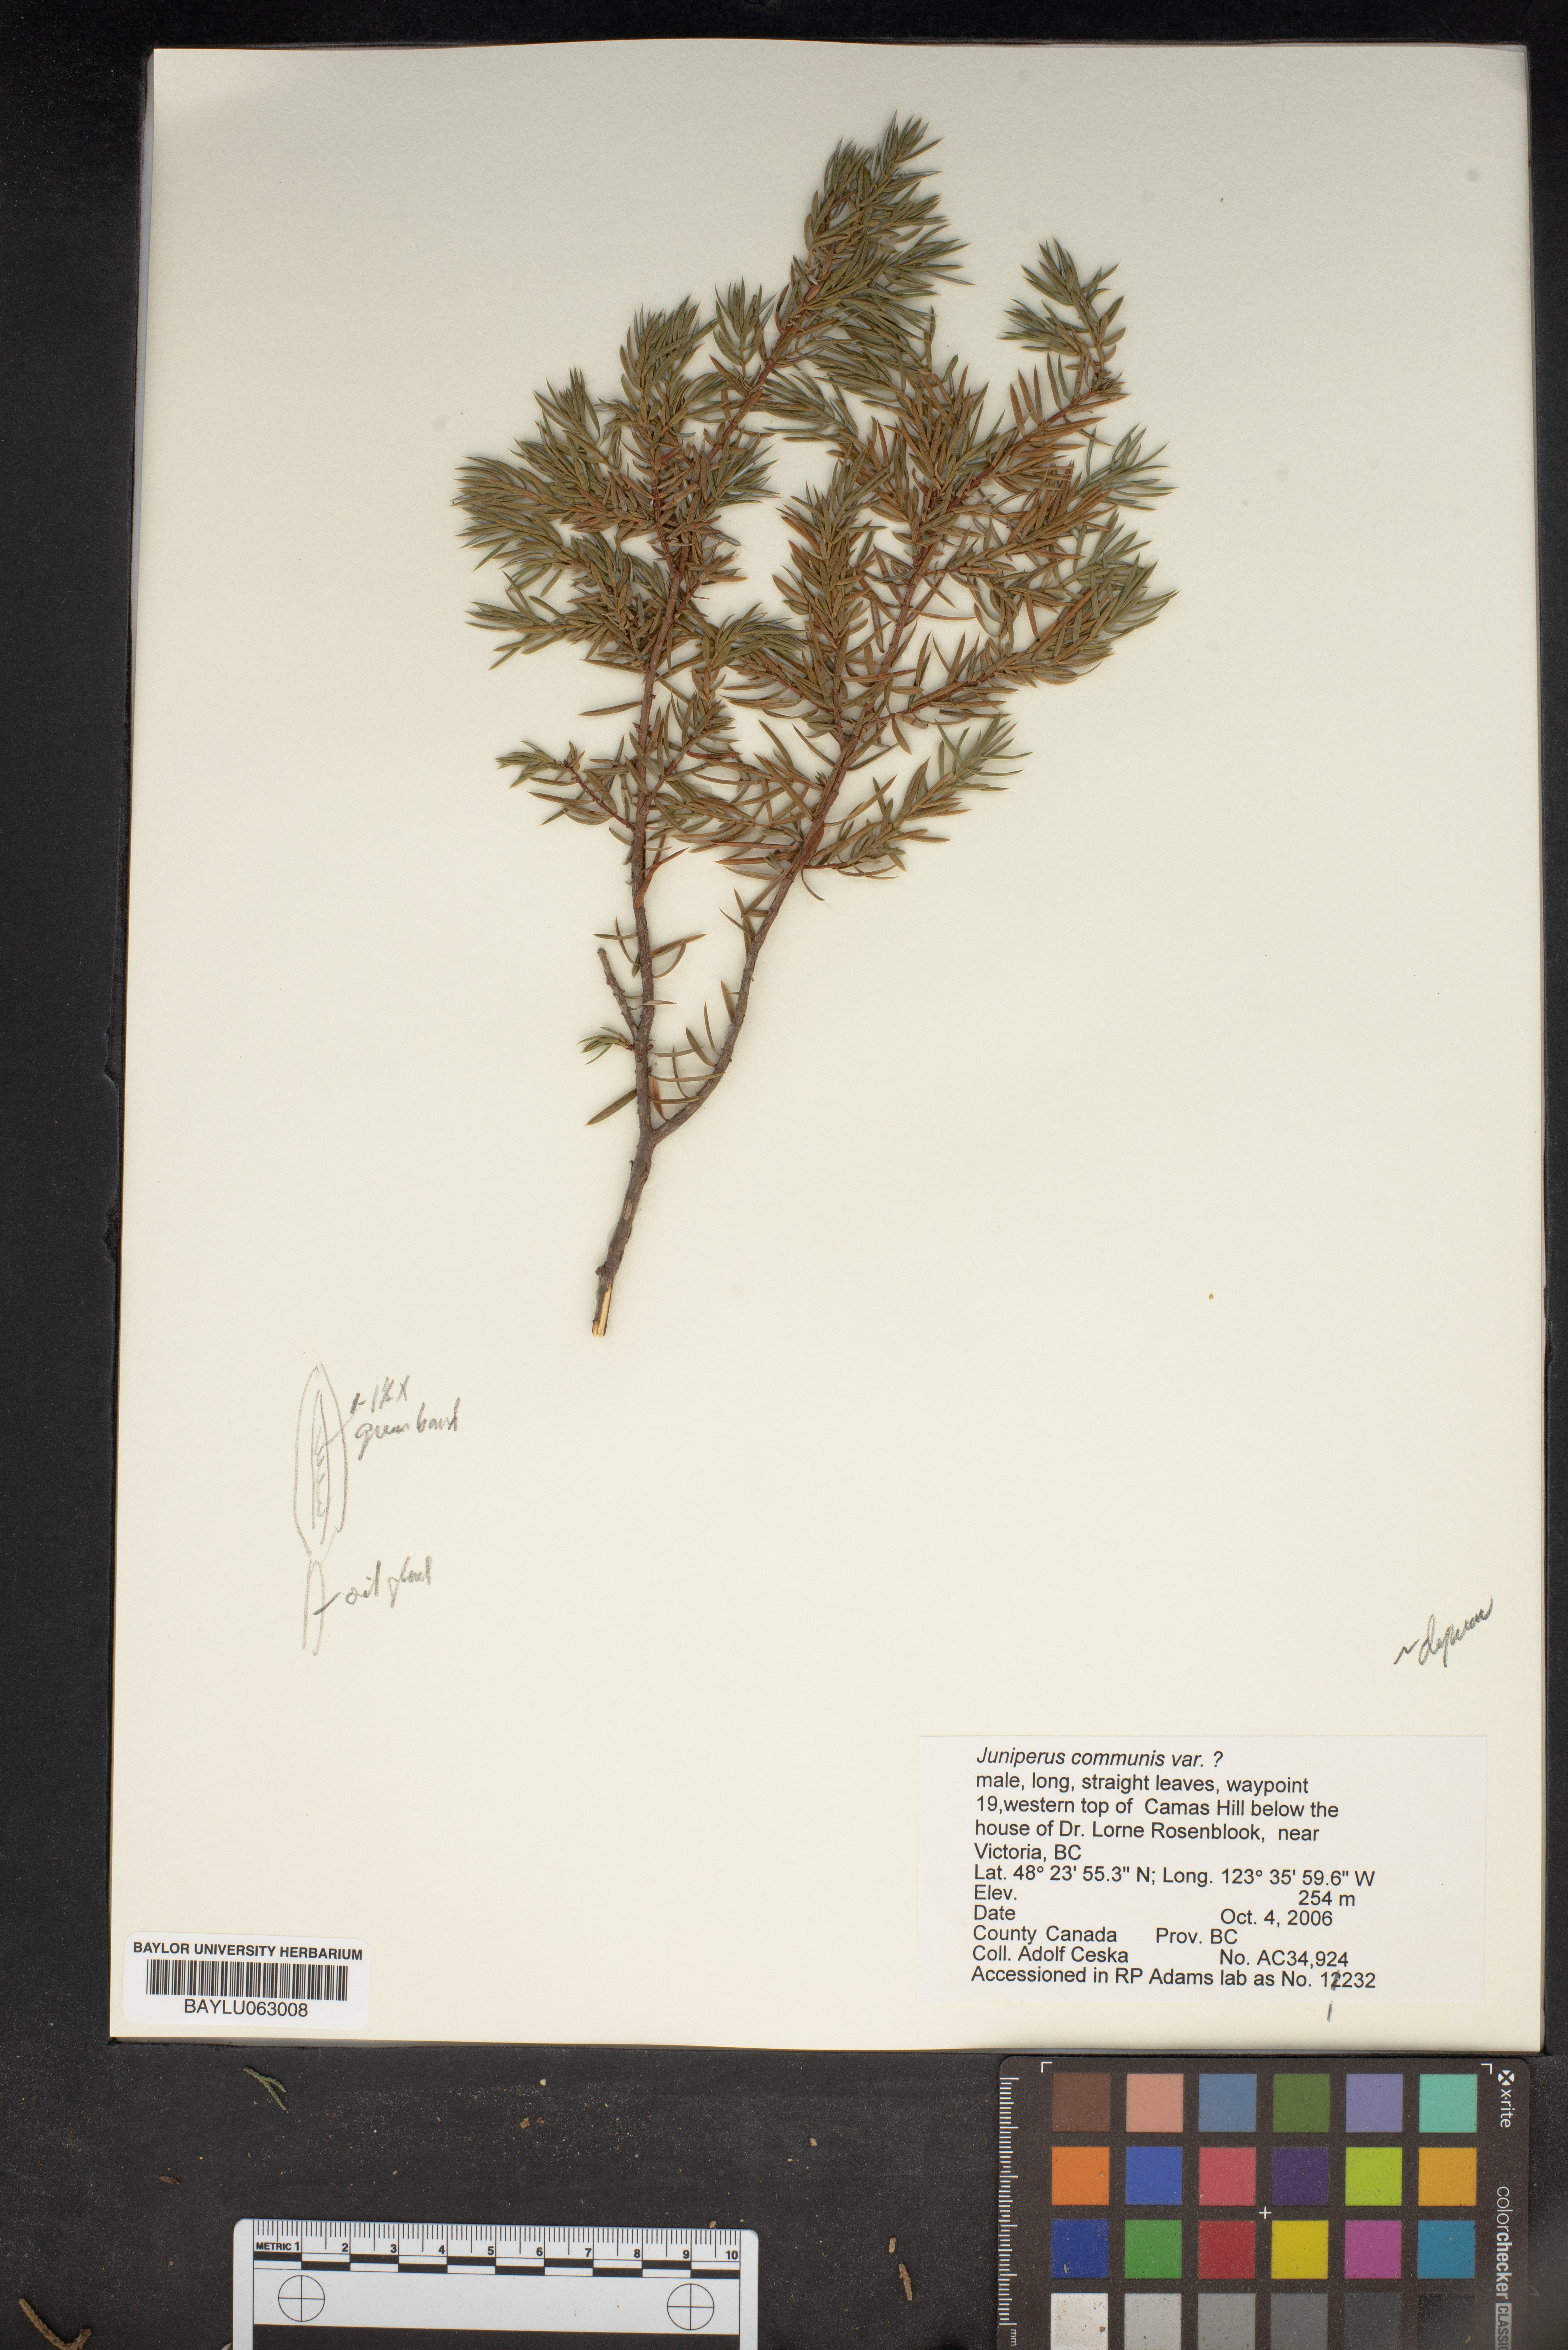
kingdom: Plantae
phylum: Tracheophyta
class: Pinopsida
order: Pinales
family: Cupressaceae
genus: Juniperus
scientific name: Juniperus communis
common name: Common juniper
